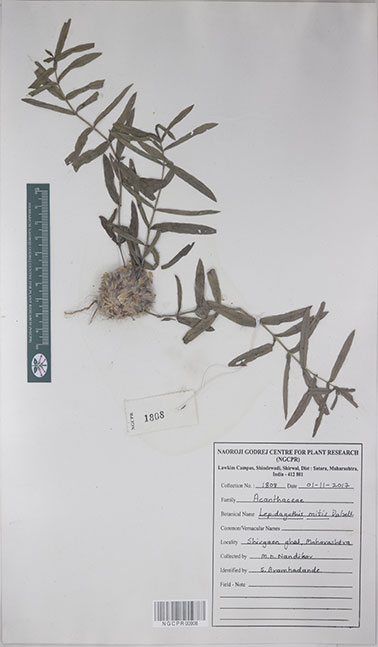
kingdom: Plantae
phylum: Tracheophyta
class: Magnoliopsida
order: Lamiales
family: Acanthaceae
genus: Lepidagathis
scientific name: Lepidagathis mitis
